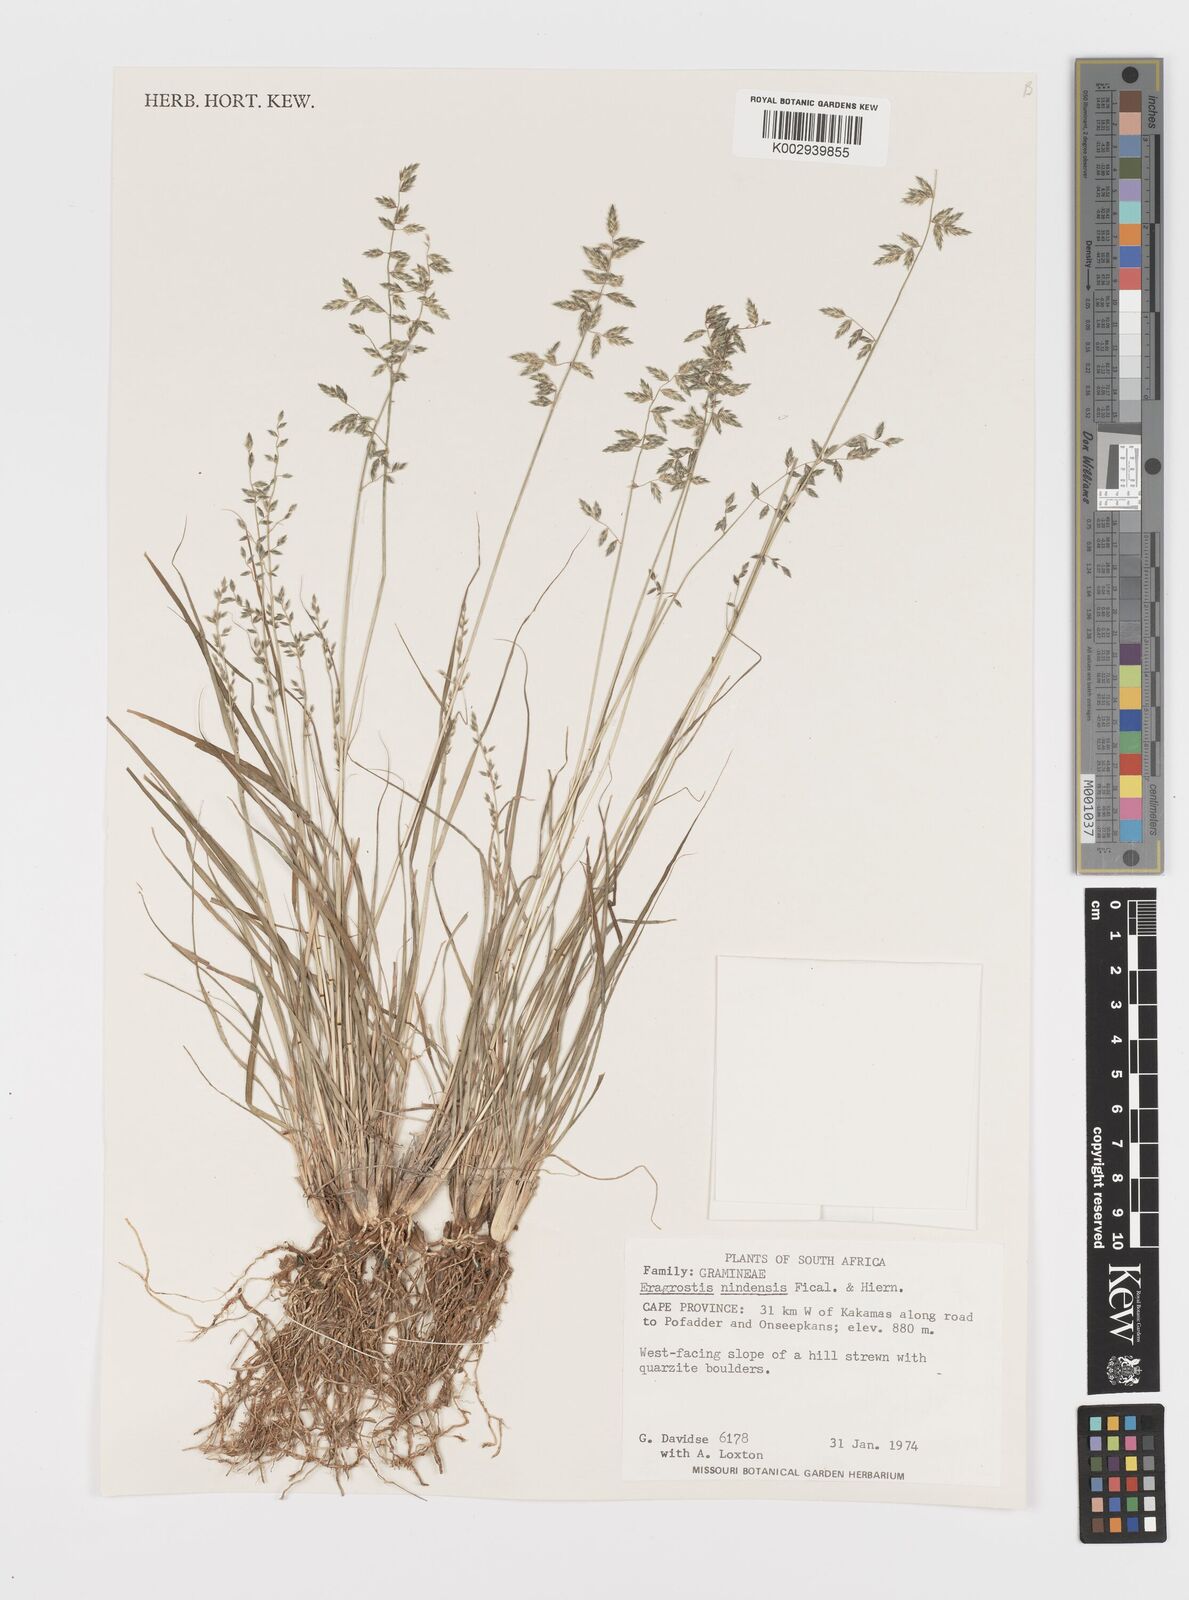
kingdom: Plantae
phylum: Tracheophyta
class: Liliopsida
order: Poales
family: Poaceae
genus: Eragrostis
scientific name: Eragrostis nindensis
